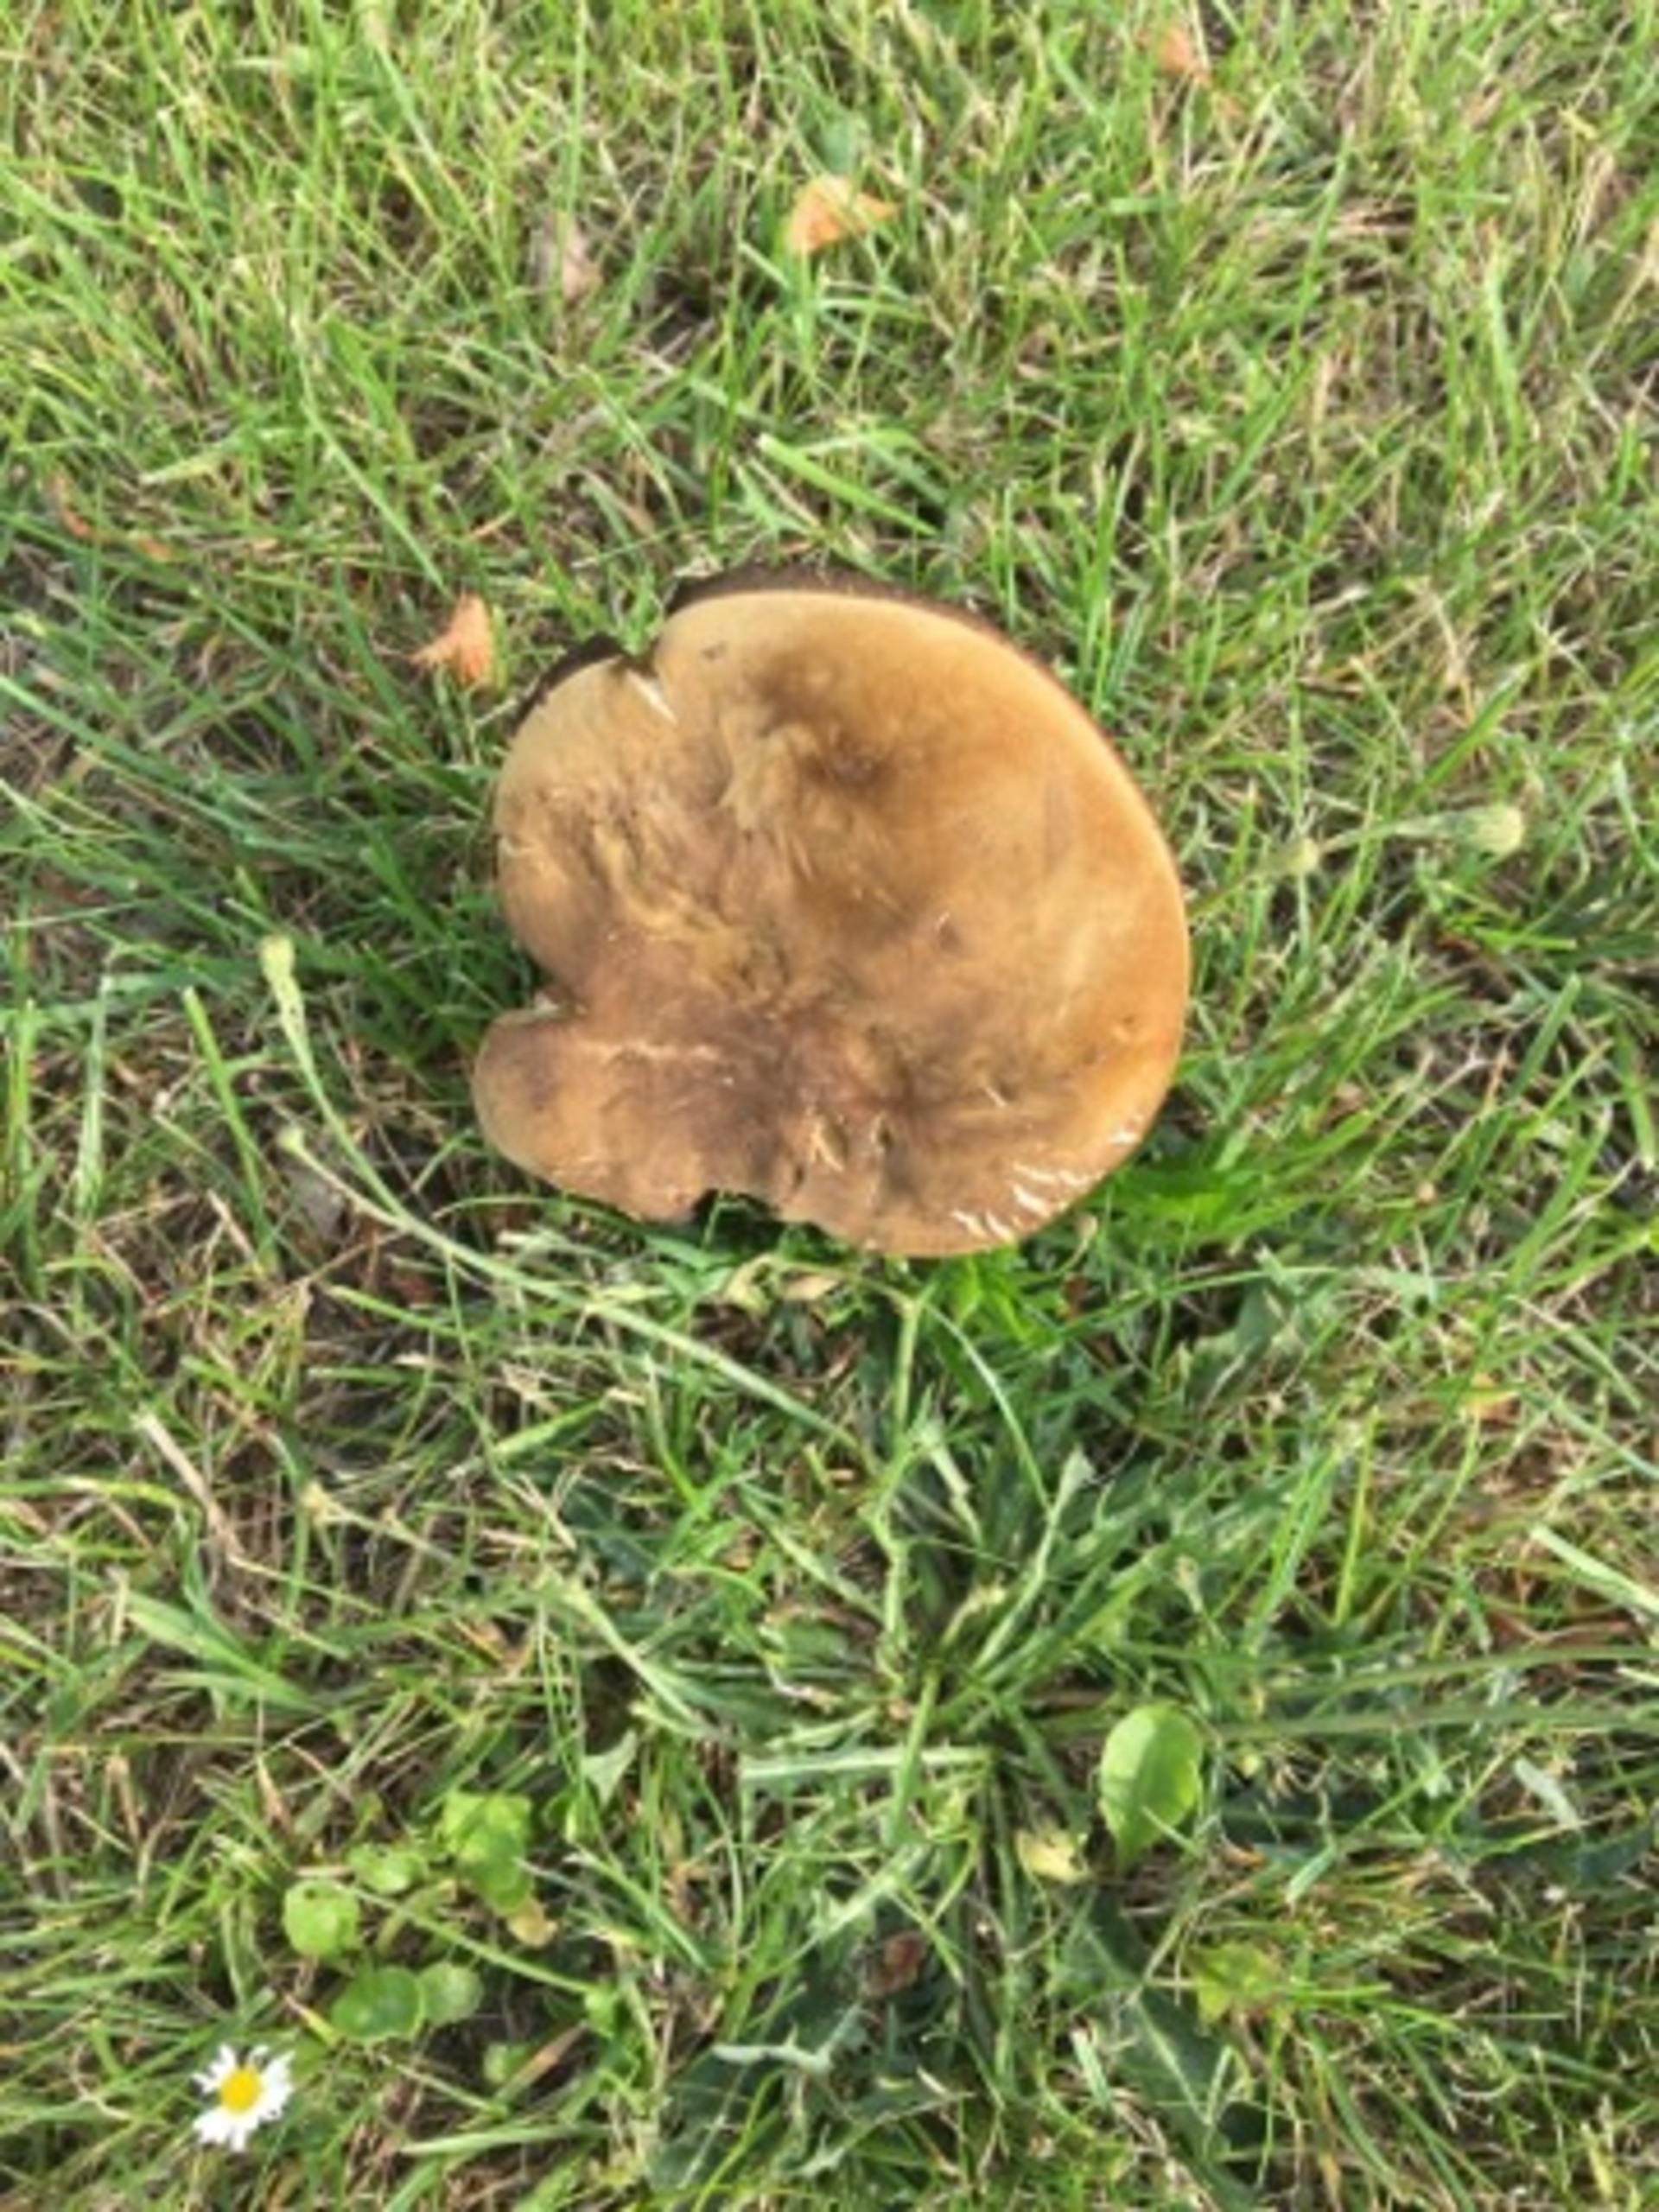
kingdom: Fungi
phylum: Basidiomycota
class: Agaricomycetes
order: Boletales
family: Boletaceae
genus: Suillellus
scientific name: Suillellus luridus
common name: Netstokket indigorørhat
